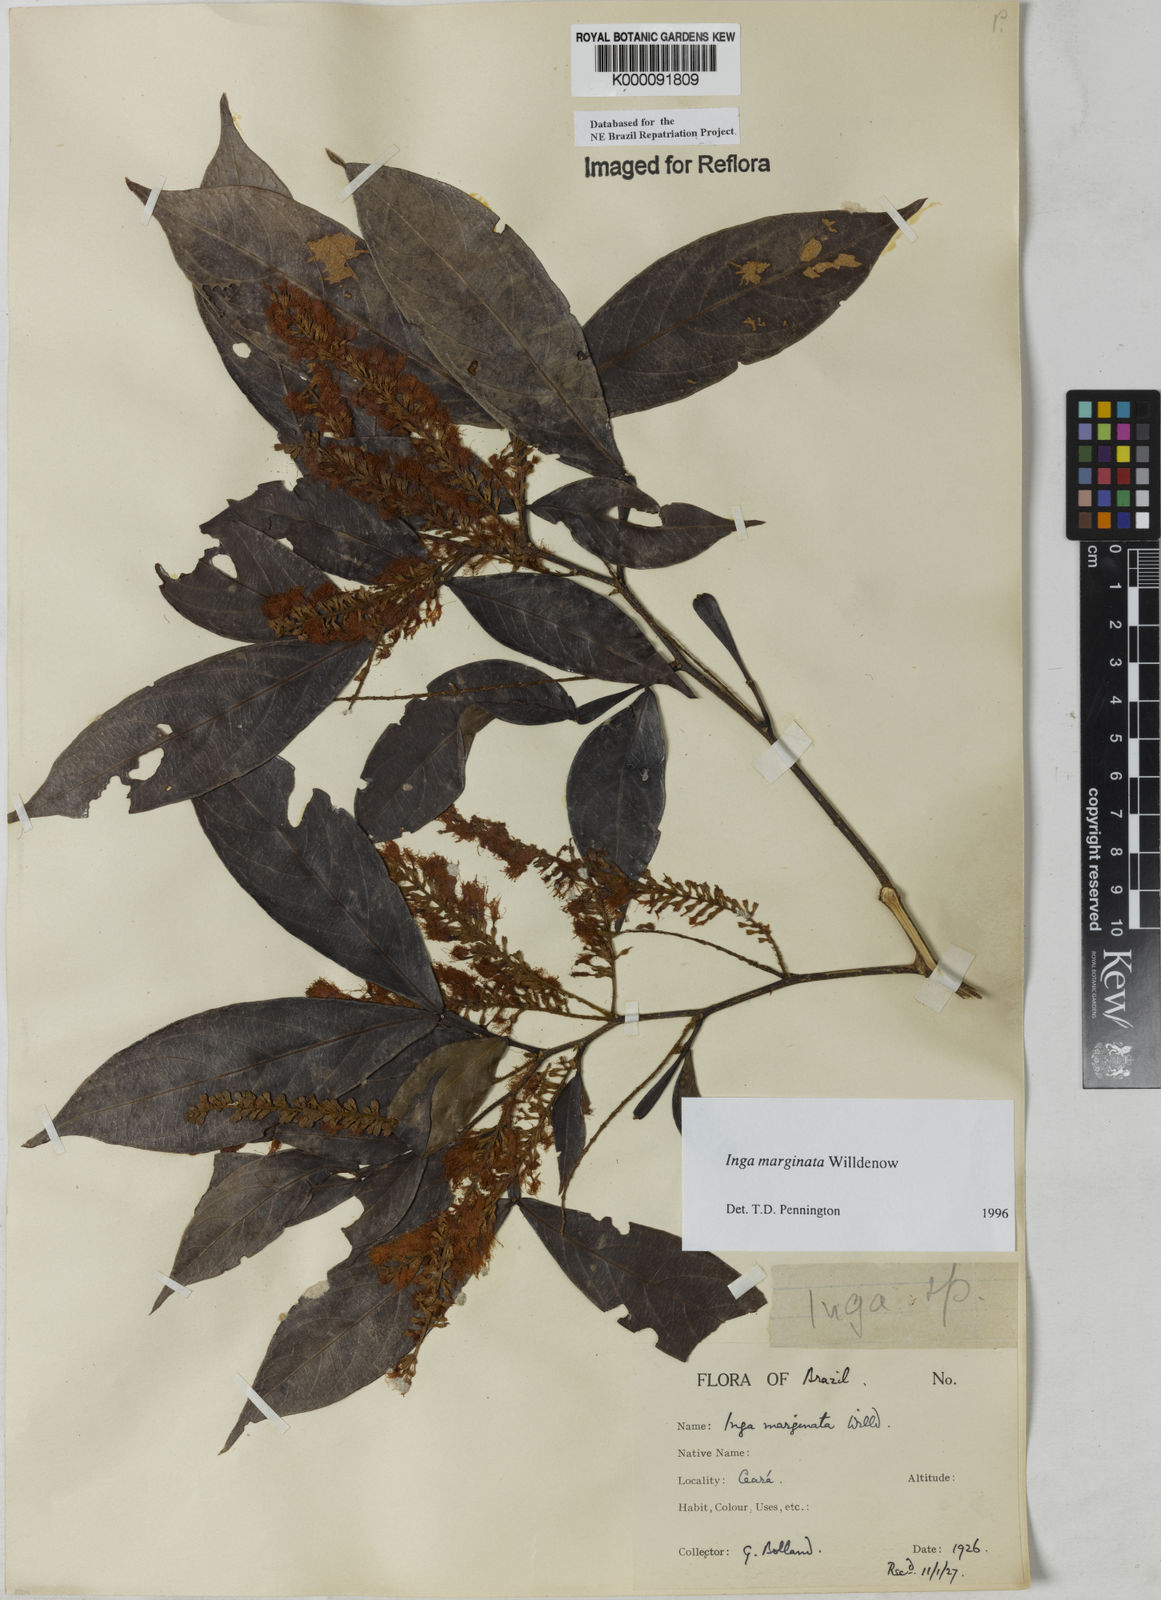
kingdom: Plantae
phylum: Tracheophyta
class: Magnoliopsida
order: Fabales
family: Fabaceae
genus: Inga
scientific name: Inga marginata
